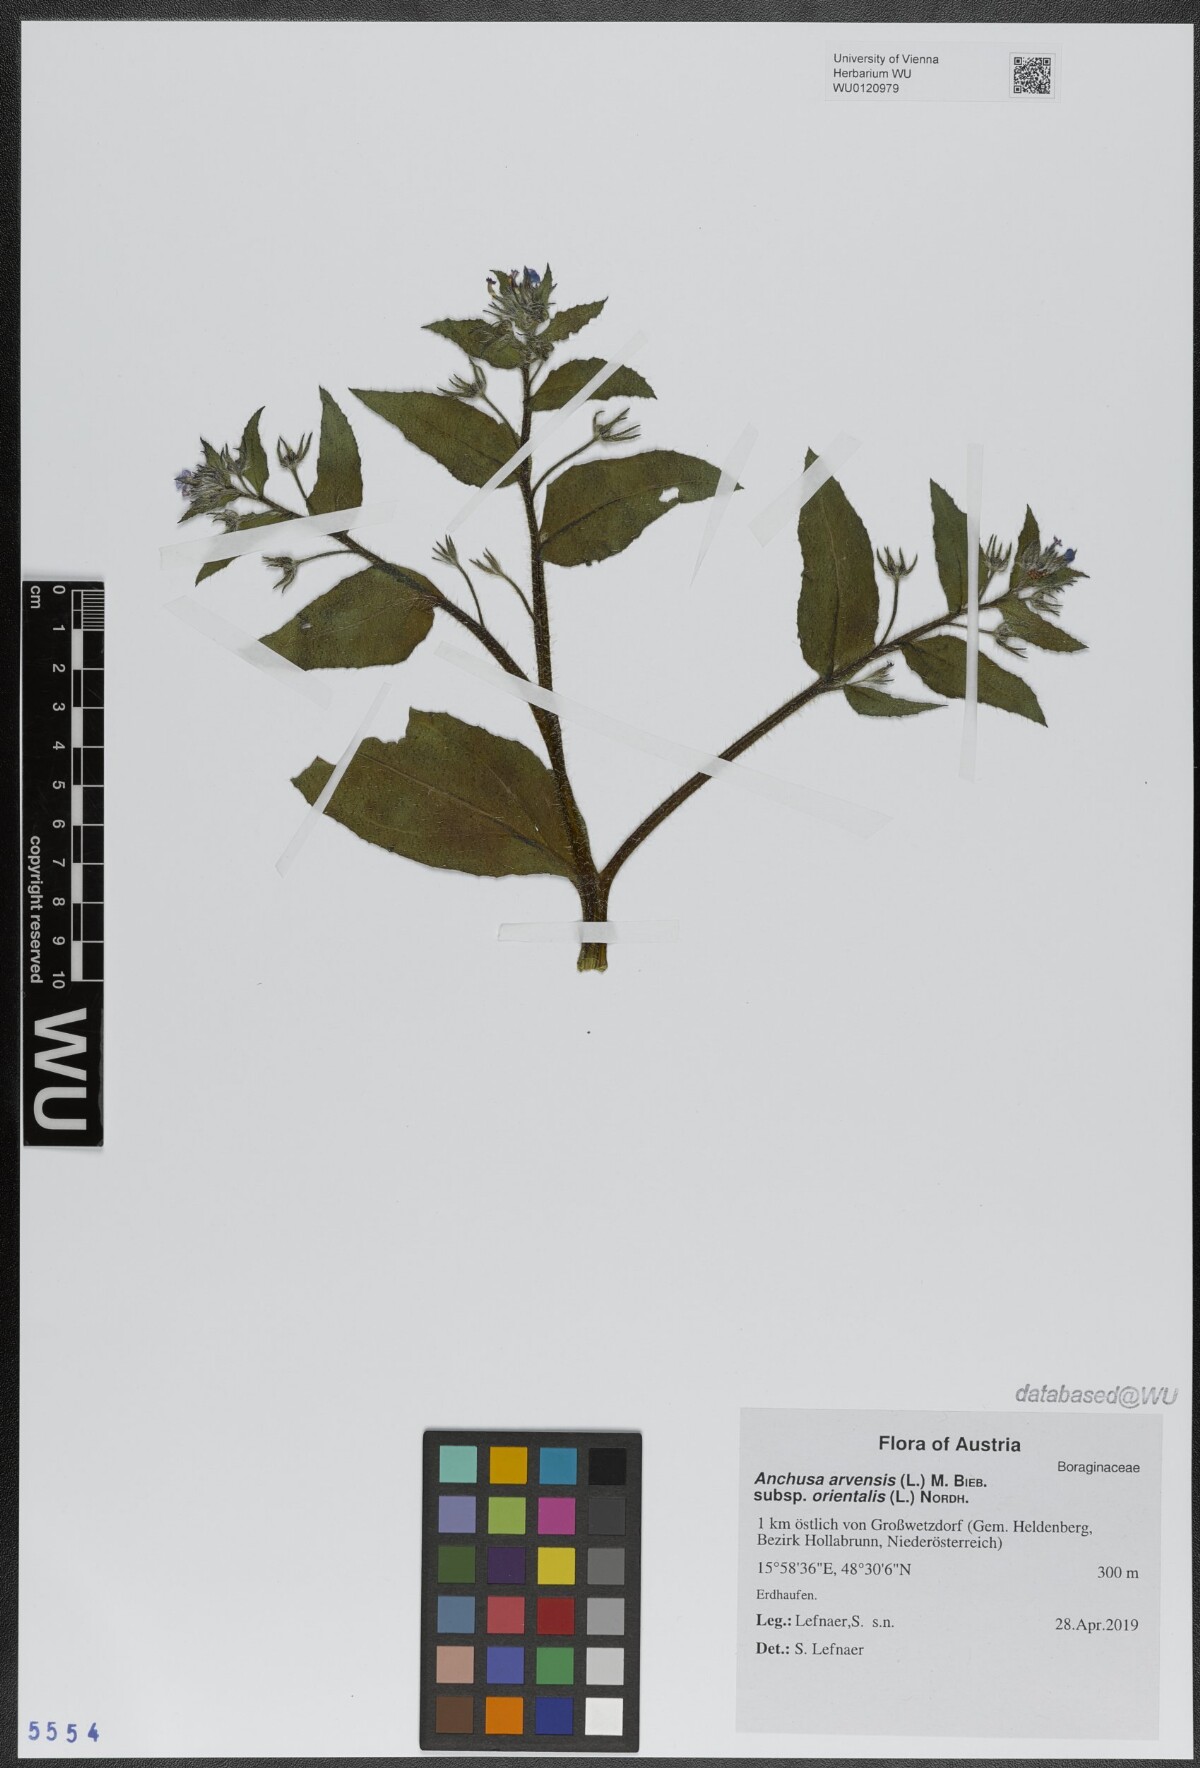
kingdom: Plantae
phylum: Tracheophyta
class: Magnoliopsida
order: Boraginales
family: Boraginaceae
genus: Lycopsis
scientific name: Lycopsis arvensis
